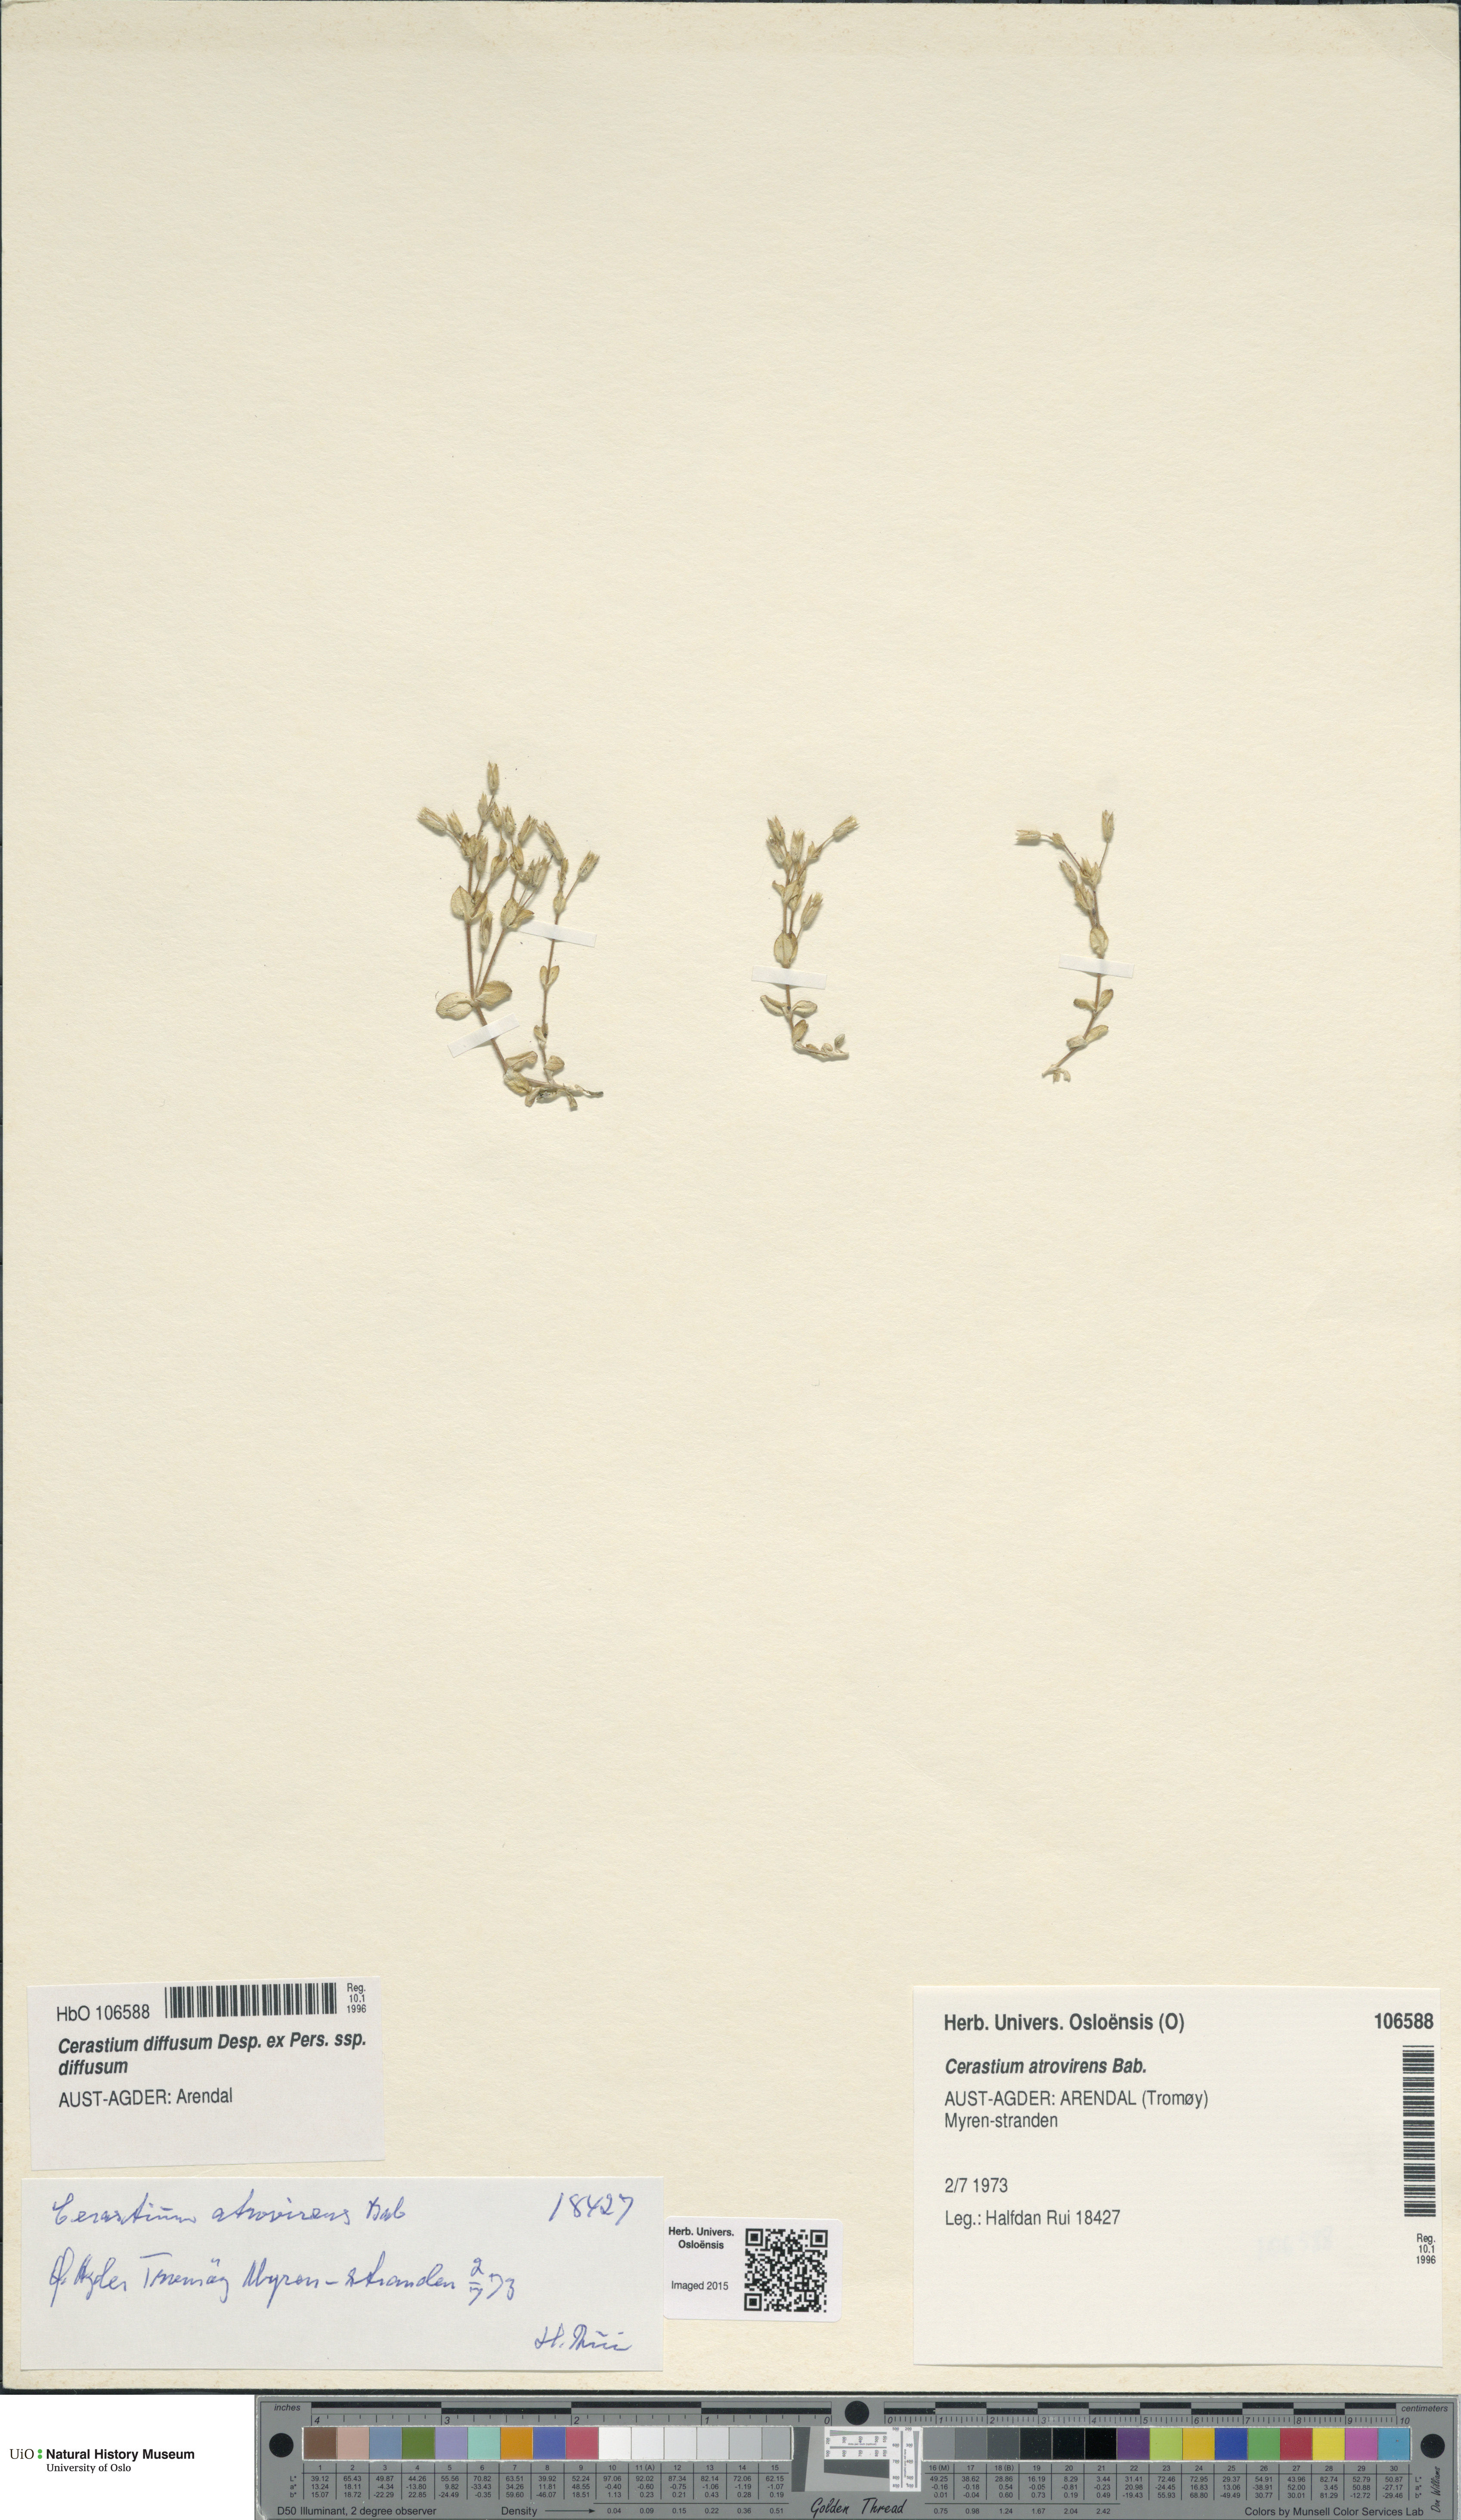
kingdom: Plantae
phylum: Tracheophyta
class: Magnoliopsida
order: Caryophyllales
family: Caryophyllaceae
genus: Cerastium
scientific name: Cerastium diffusum
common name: Fourstamen chickweed
